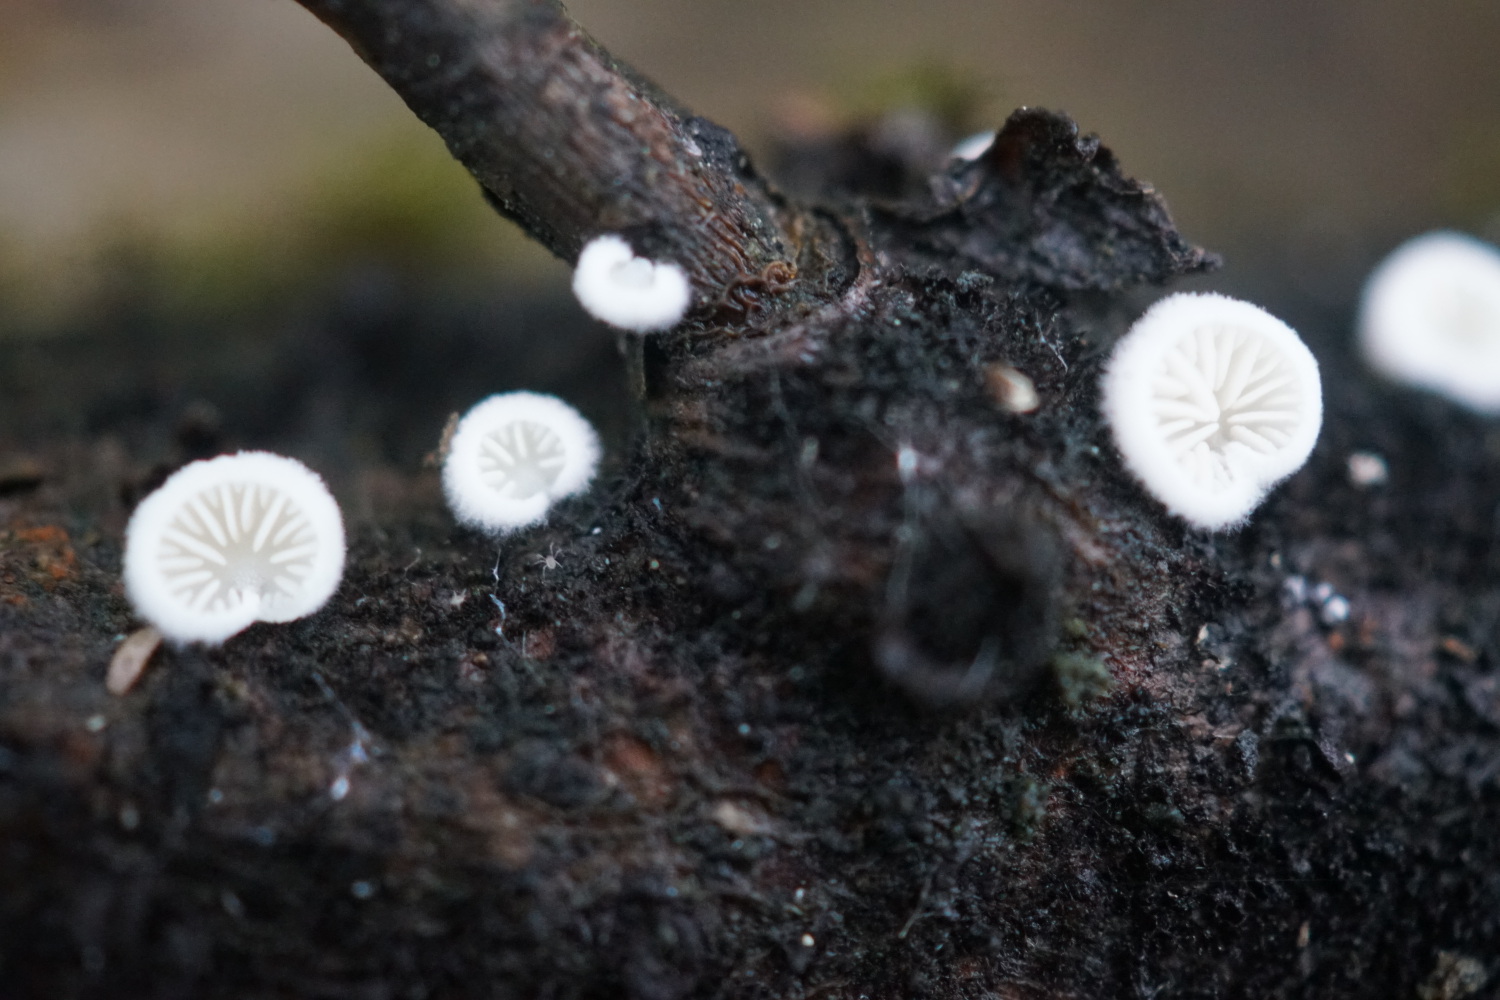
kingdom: Fungi
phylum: Basidiomycota
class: Agaricomycetes
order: Agaricales
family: Entolomataceae
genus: Clitopilus
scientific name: Clitopilus hobsonii
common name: Miller's oysterling
